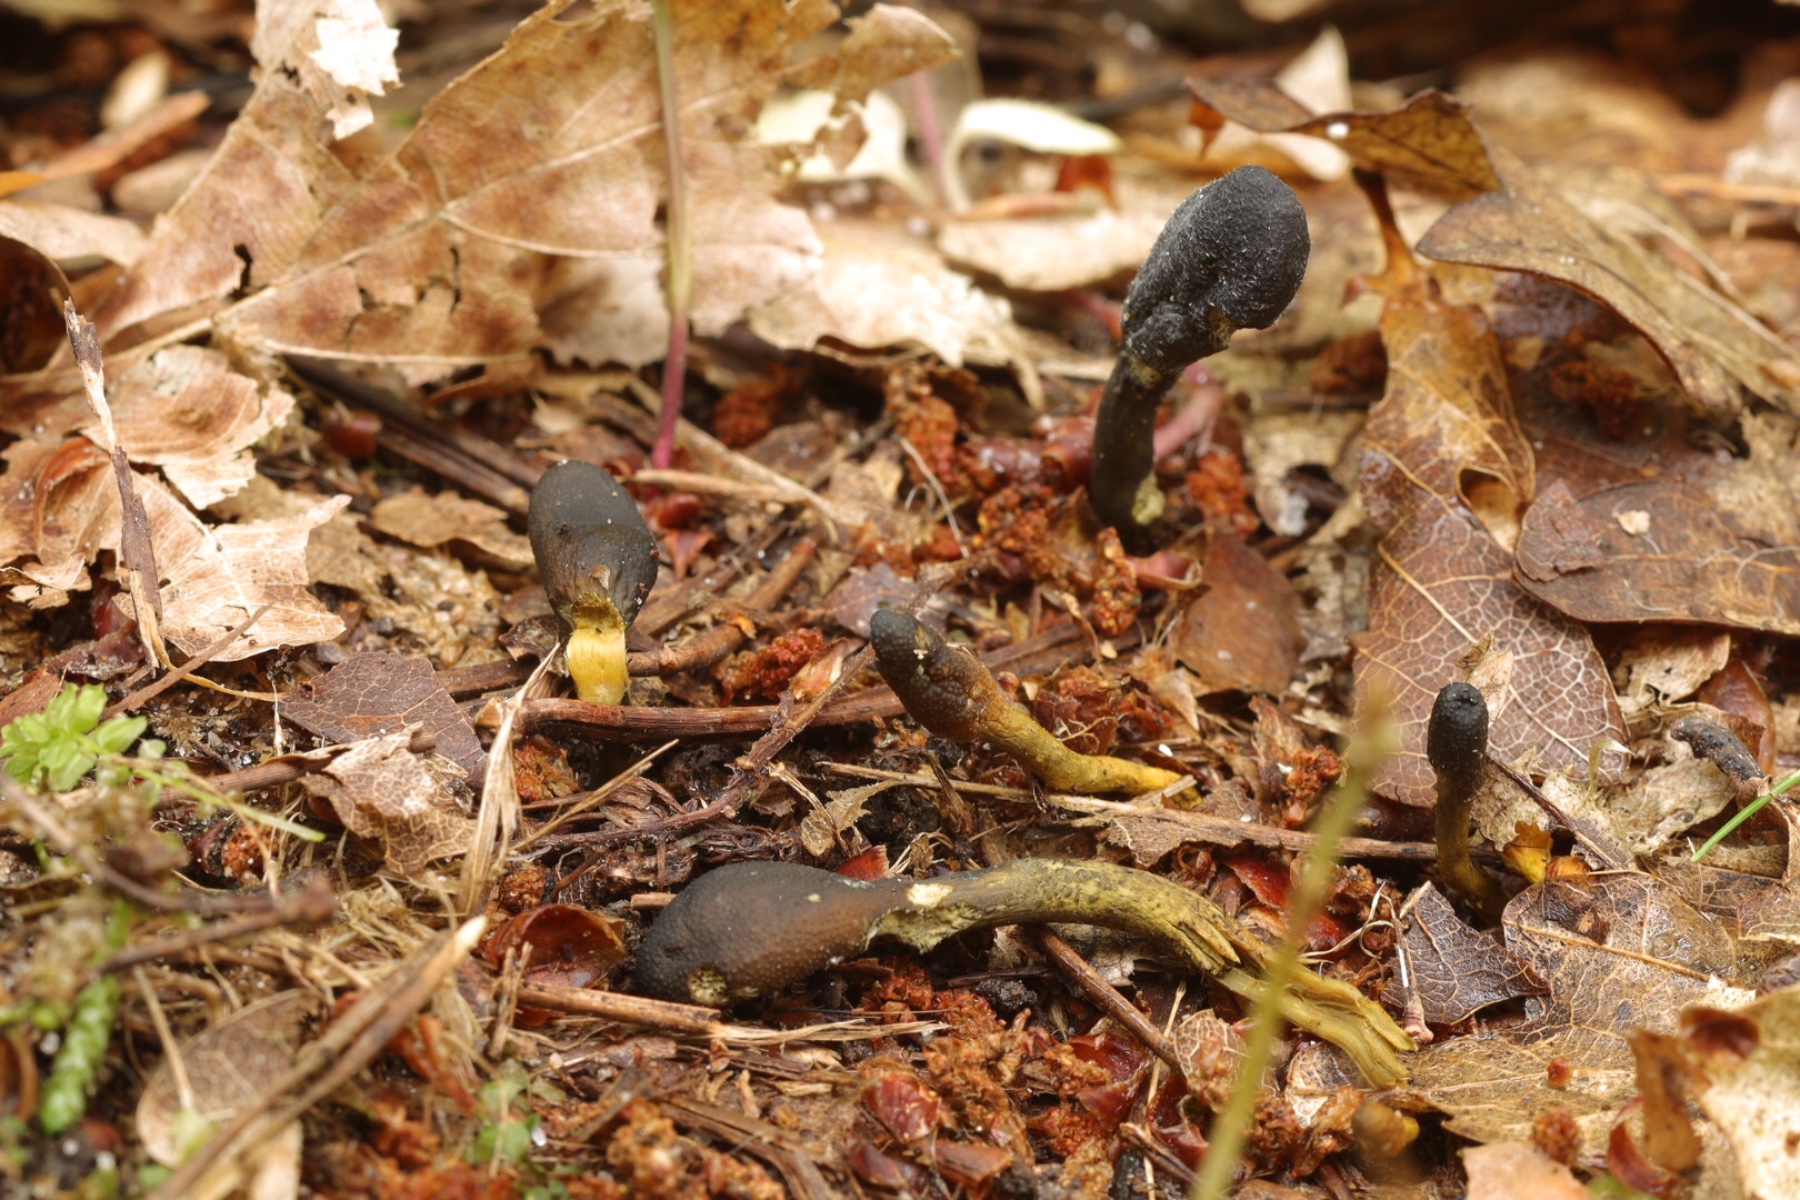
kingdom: Fungi
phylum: Ascomycota
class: Sordariomycetes
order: Hypocreales
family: Ophiocordycipitaceae
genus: Tolypocladium
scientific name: Tolypocladium ophioglossoides
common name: slank snyltekølle
